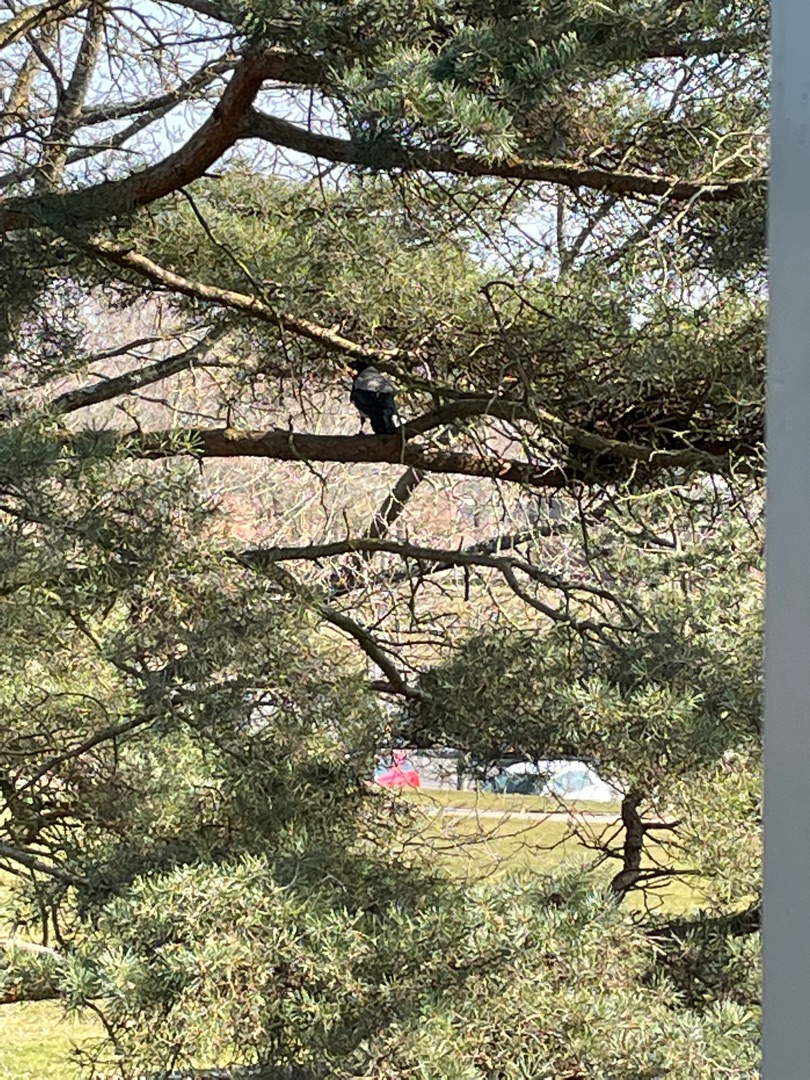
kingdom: Animalia
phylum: Chordata
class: Aves
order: Passeriformes
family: Corvidae
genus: Corvus
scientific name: Corvus cornix
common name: Gråkrage
